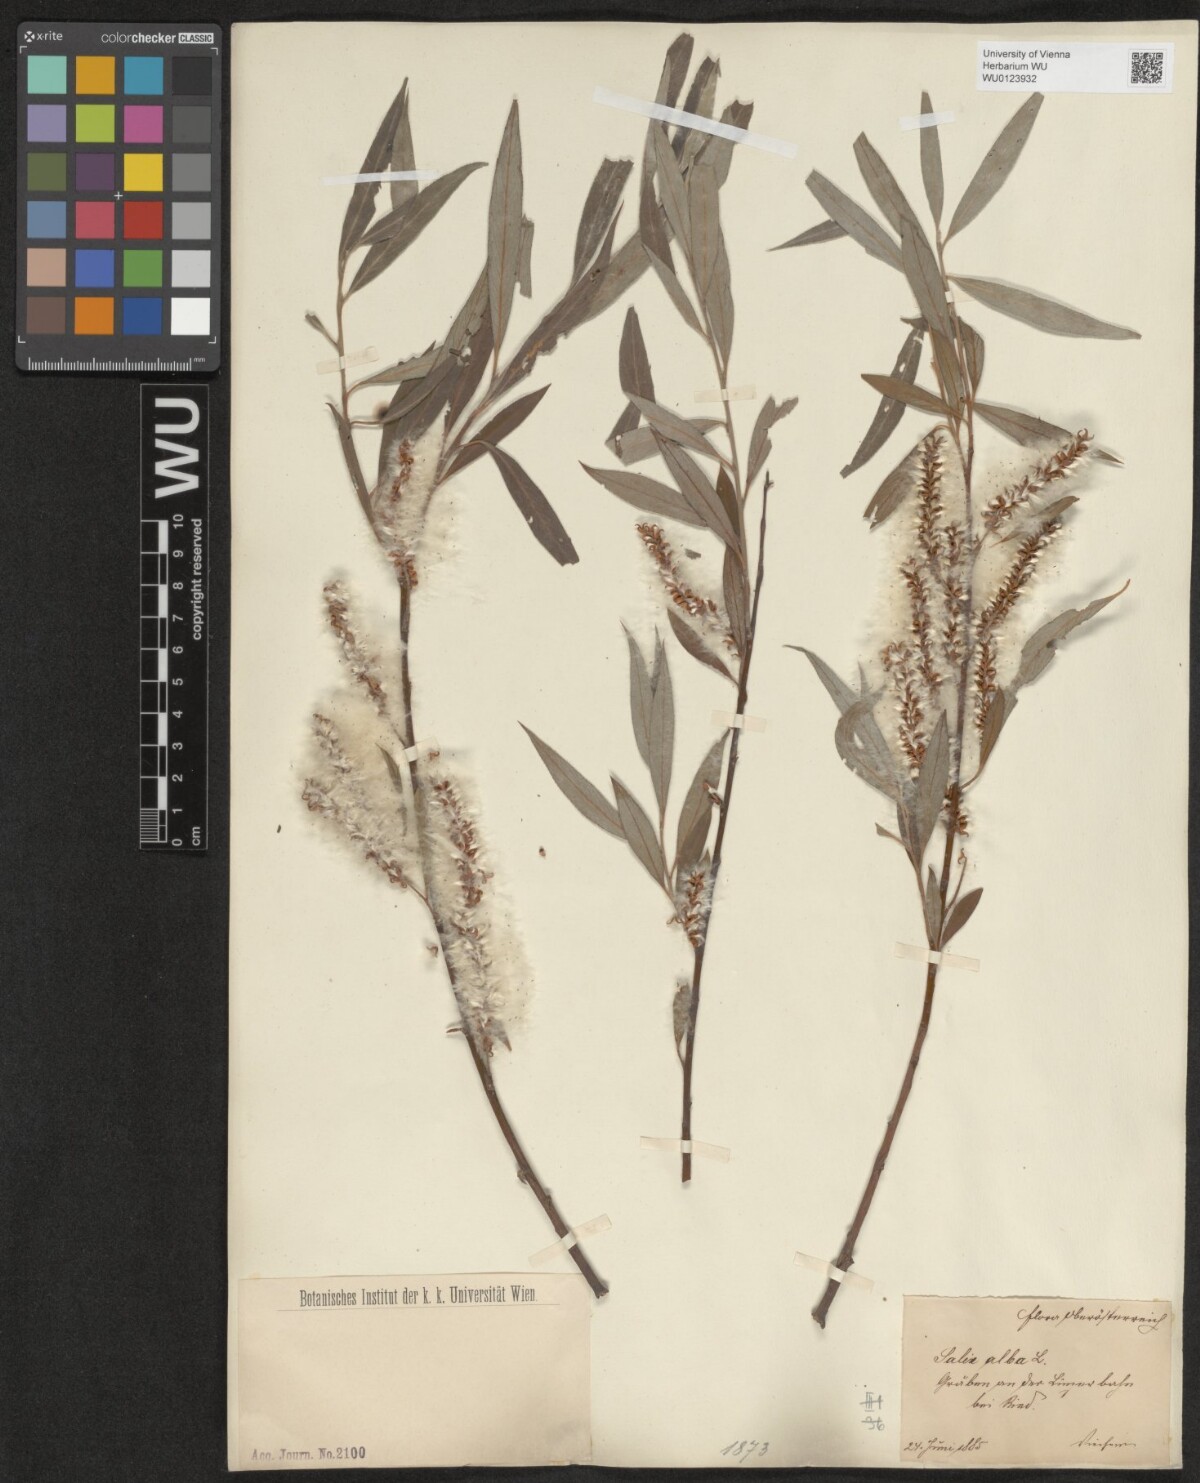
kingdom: Plantae
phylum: Tracheophyta
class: Magnoliopsida
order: Malpighiales
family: Salicaceae
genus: Salix
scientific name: Salix alba
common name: White willow
